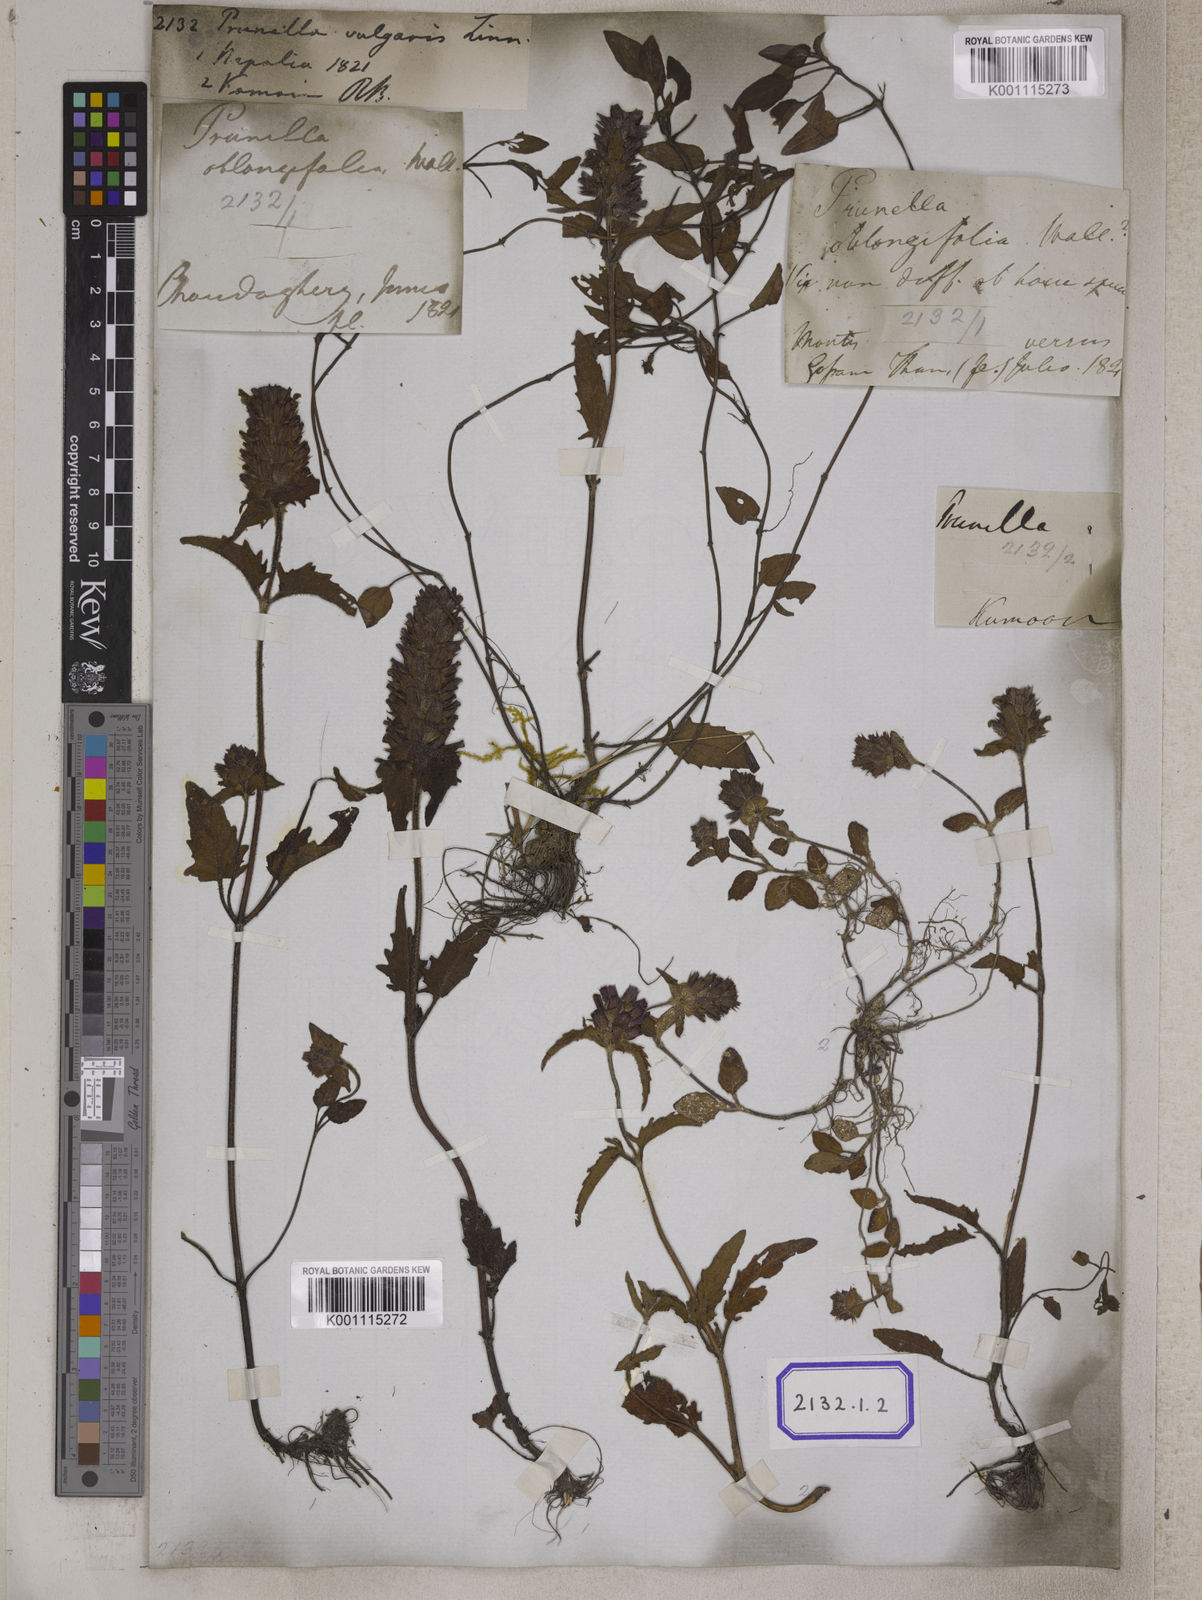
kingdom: Plantae
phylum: Tracheophyta
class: Magnoliopsida
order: Lamiales
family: Lamiaceae
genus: Prunella
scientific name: Prunella vulgaris
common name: Heal-all
